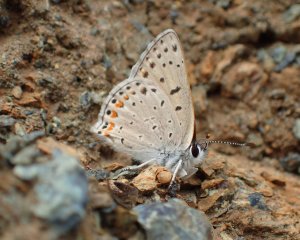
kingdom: Animalia
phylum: Arthropoda
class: Insecta
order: Lepidoptera
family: Lycaenidae
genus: Lycaena
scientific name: Lycaena gorgon
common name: Gorgon Copper
